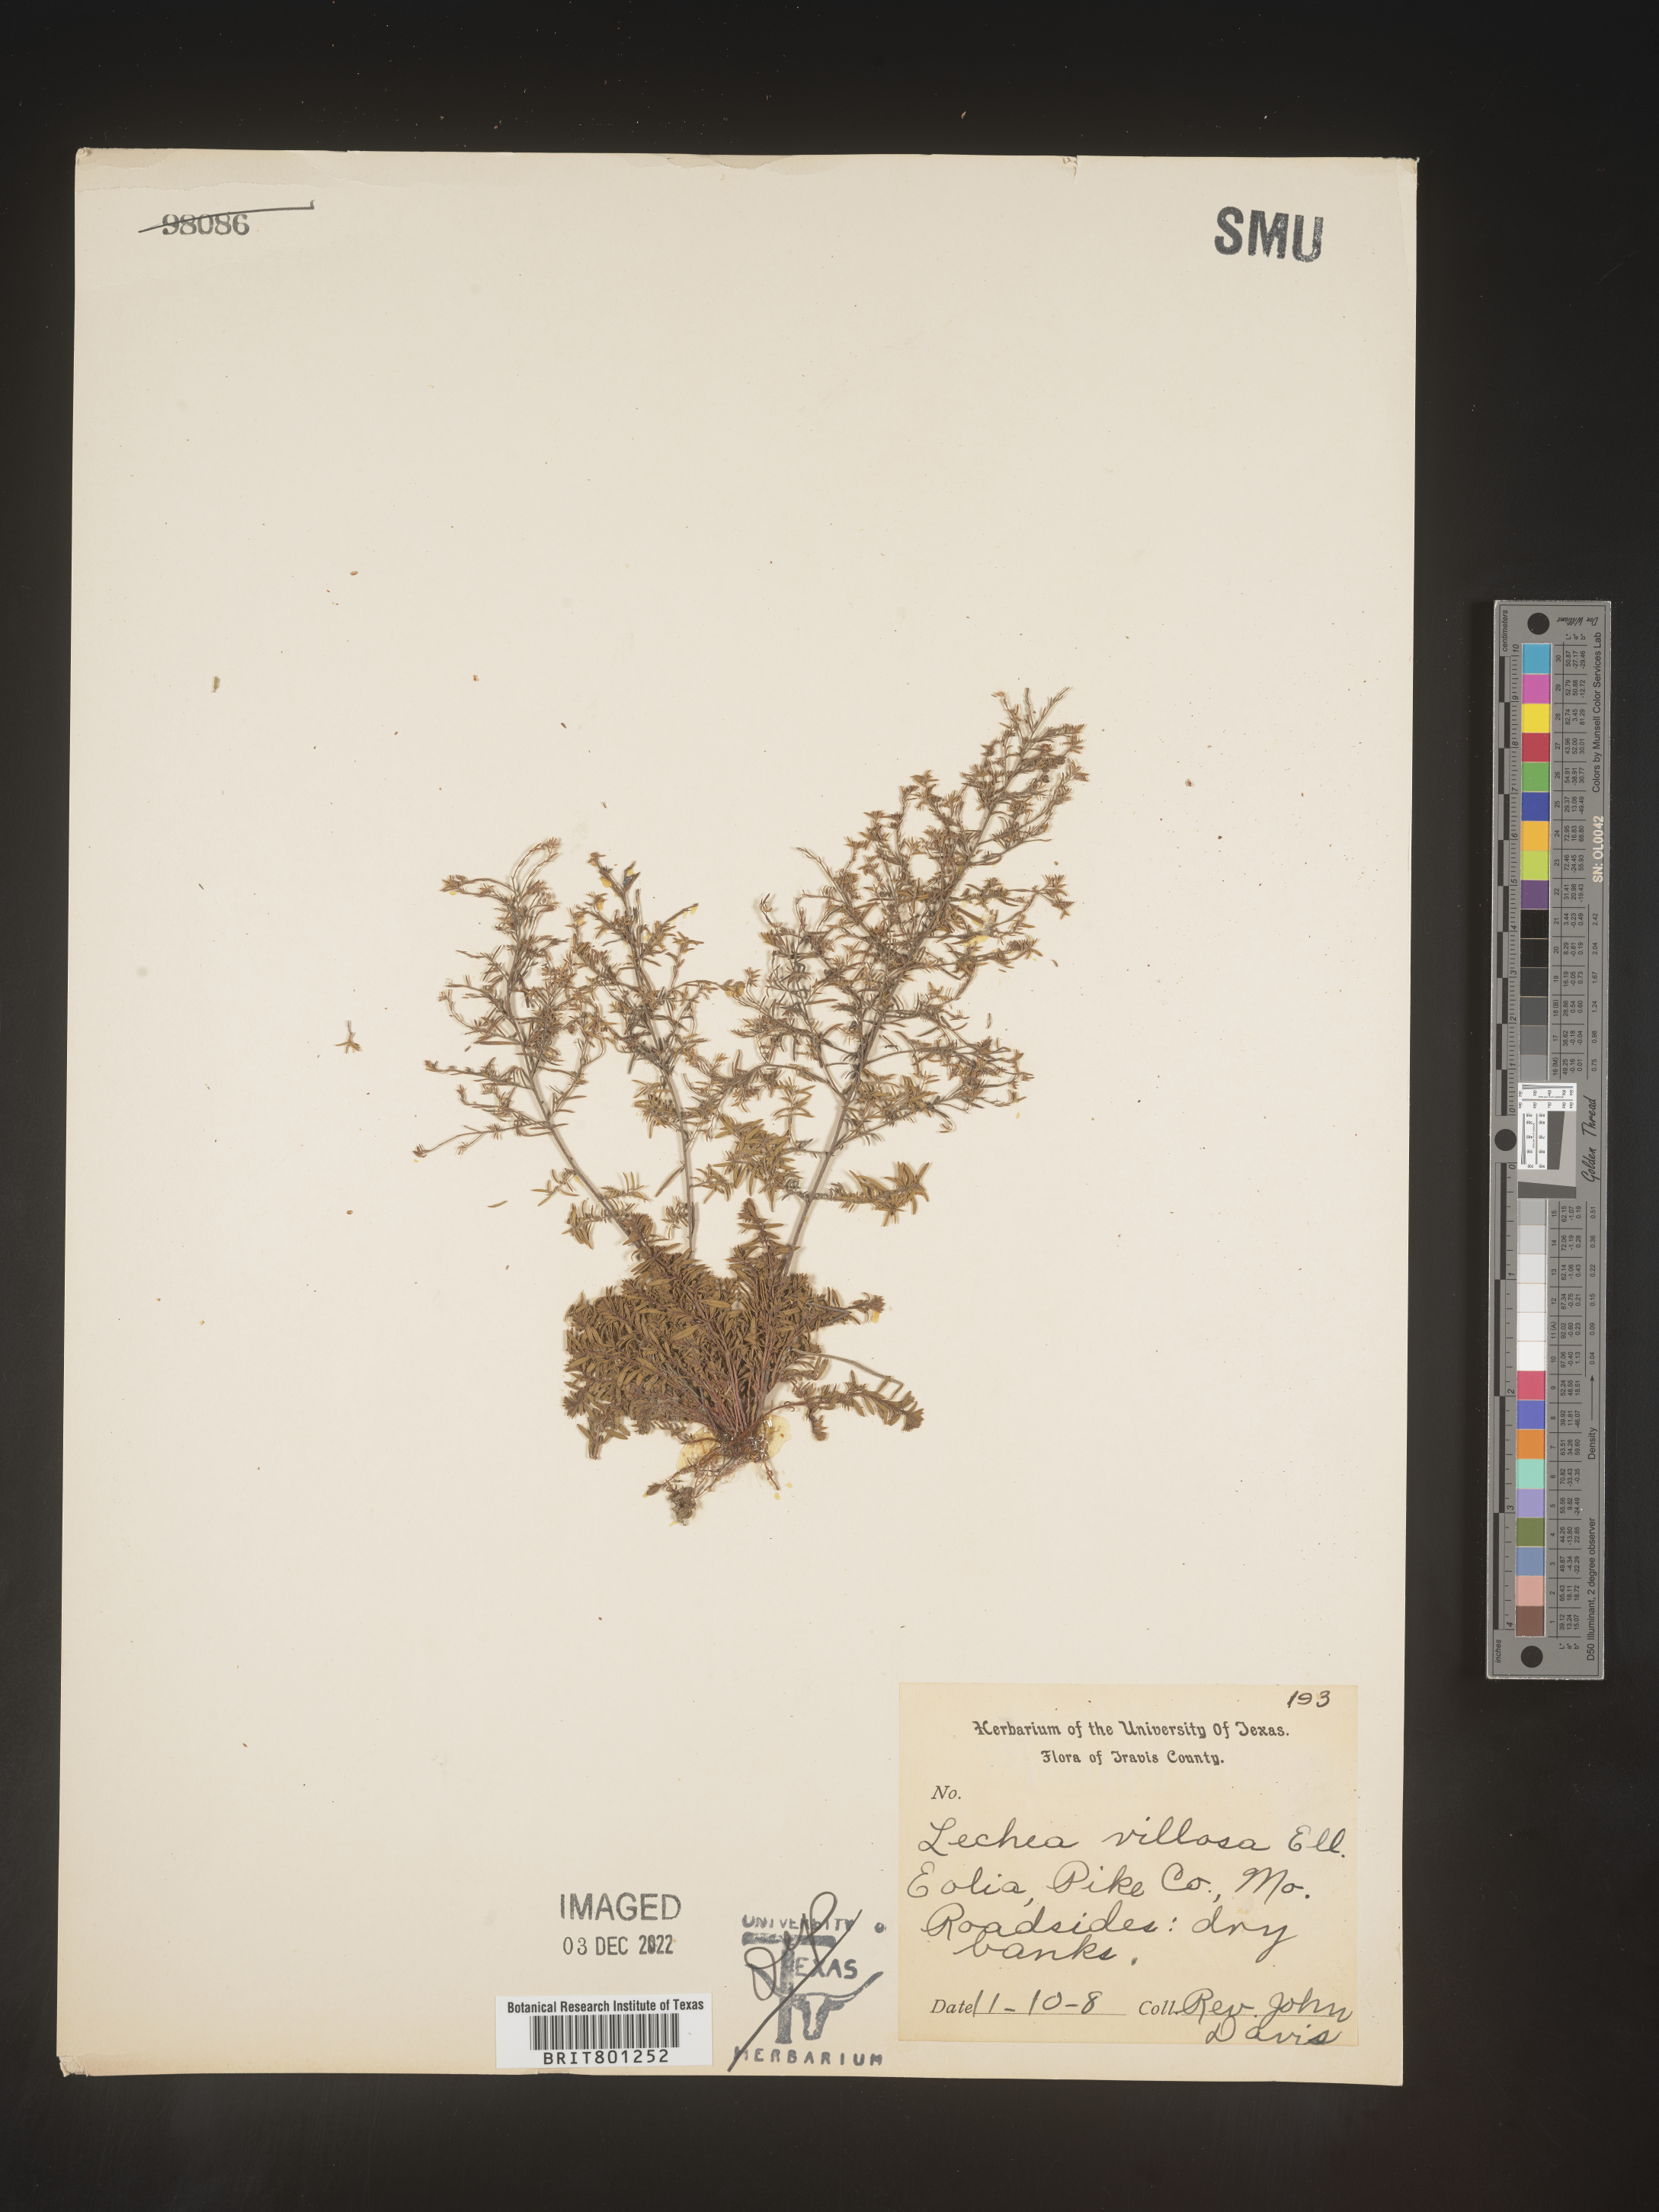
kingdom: Plantae
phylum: Tracheophyta
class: Magnoliopsida
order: Malvales
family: Cistaceae
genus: Lechea
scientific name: Lechea mucronata
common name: Hairy pinweed
